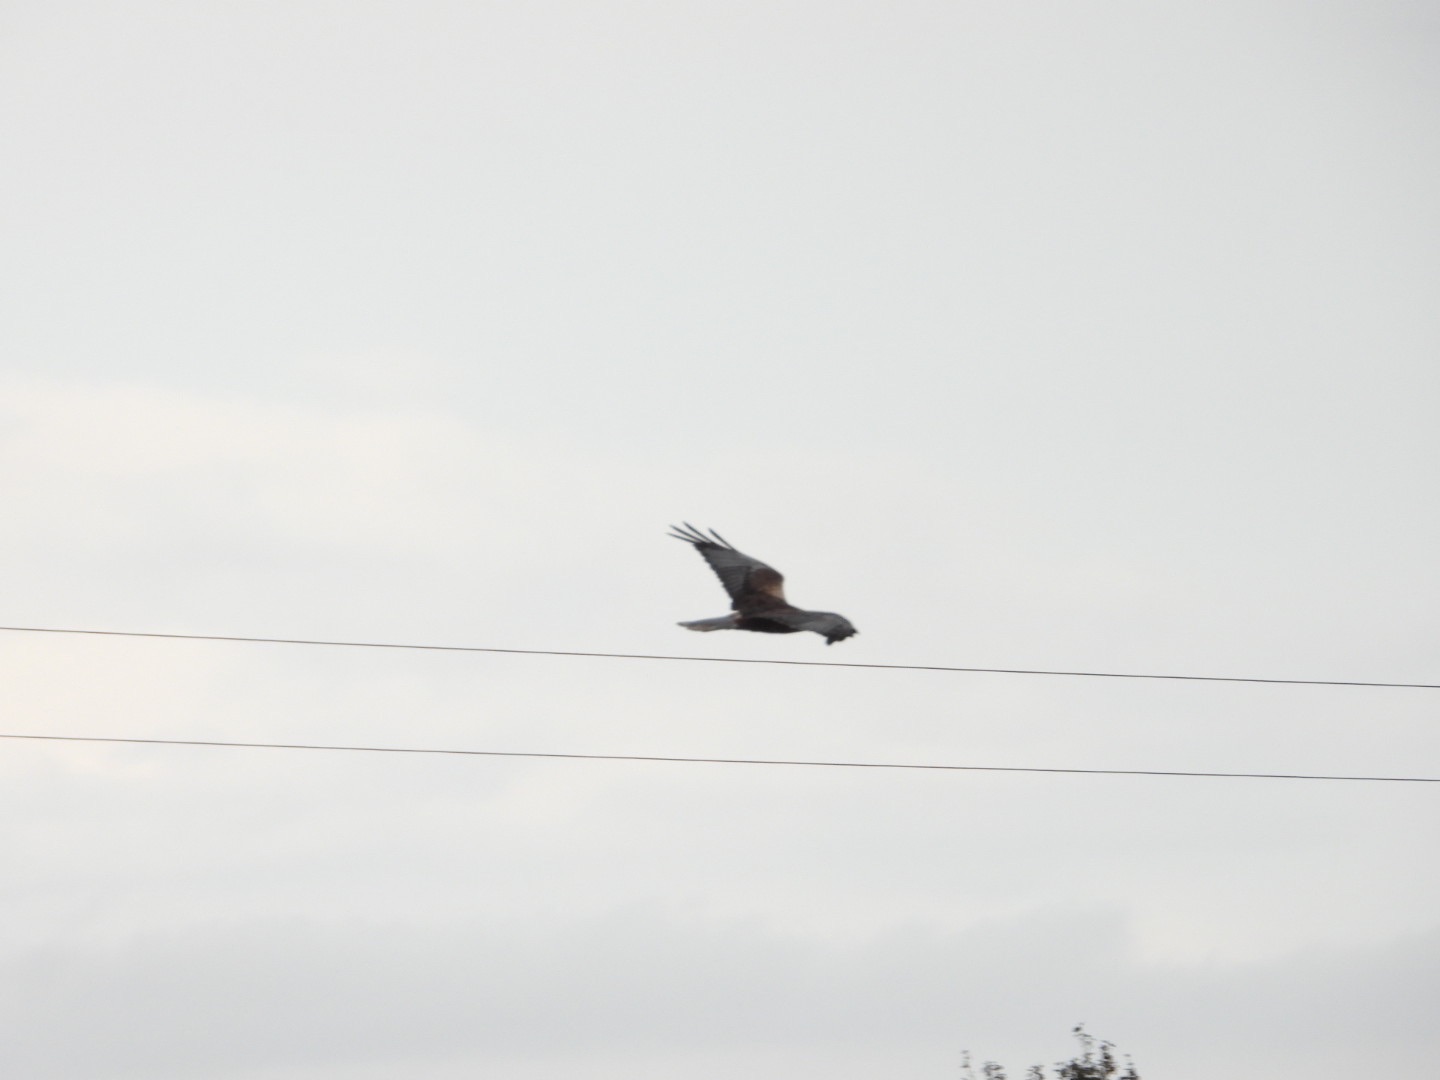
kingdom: Animalia
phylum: Chordata
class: Aves
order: Accipitriformes
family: Accipitridae
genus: Circus
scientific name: Circus aeruginosus
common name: Rørhøg
